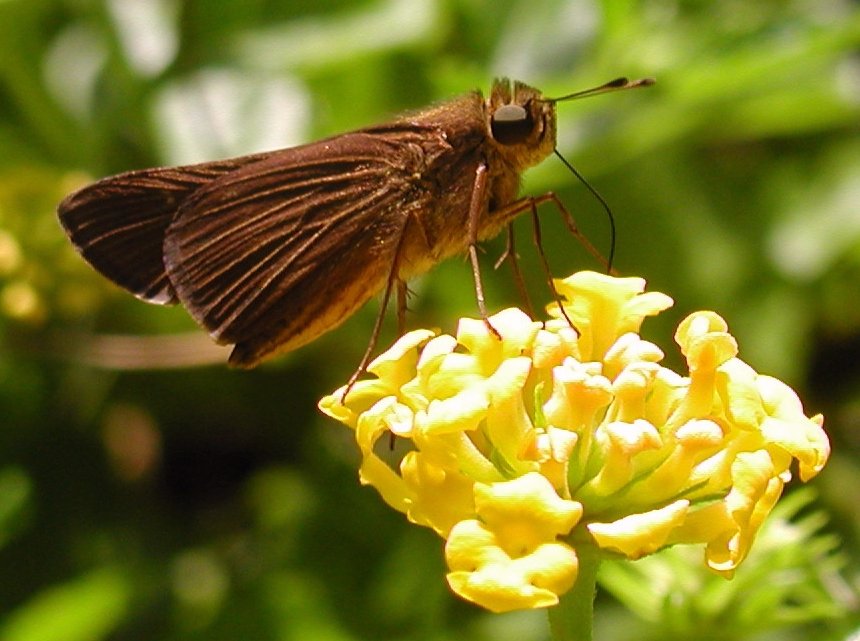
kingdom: Animalia
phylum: Arthropoda
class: Insecta
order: Lepidoptera
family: Hesperiidae
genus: Panoquina
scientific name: Panoquina ocola
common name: Ocola Skipper
